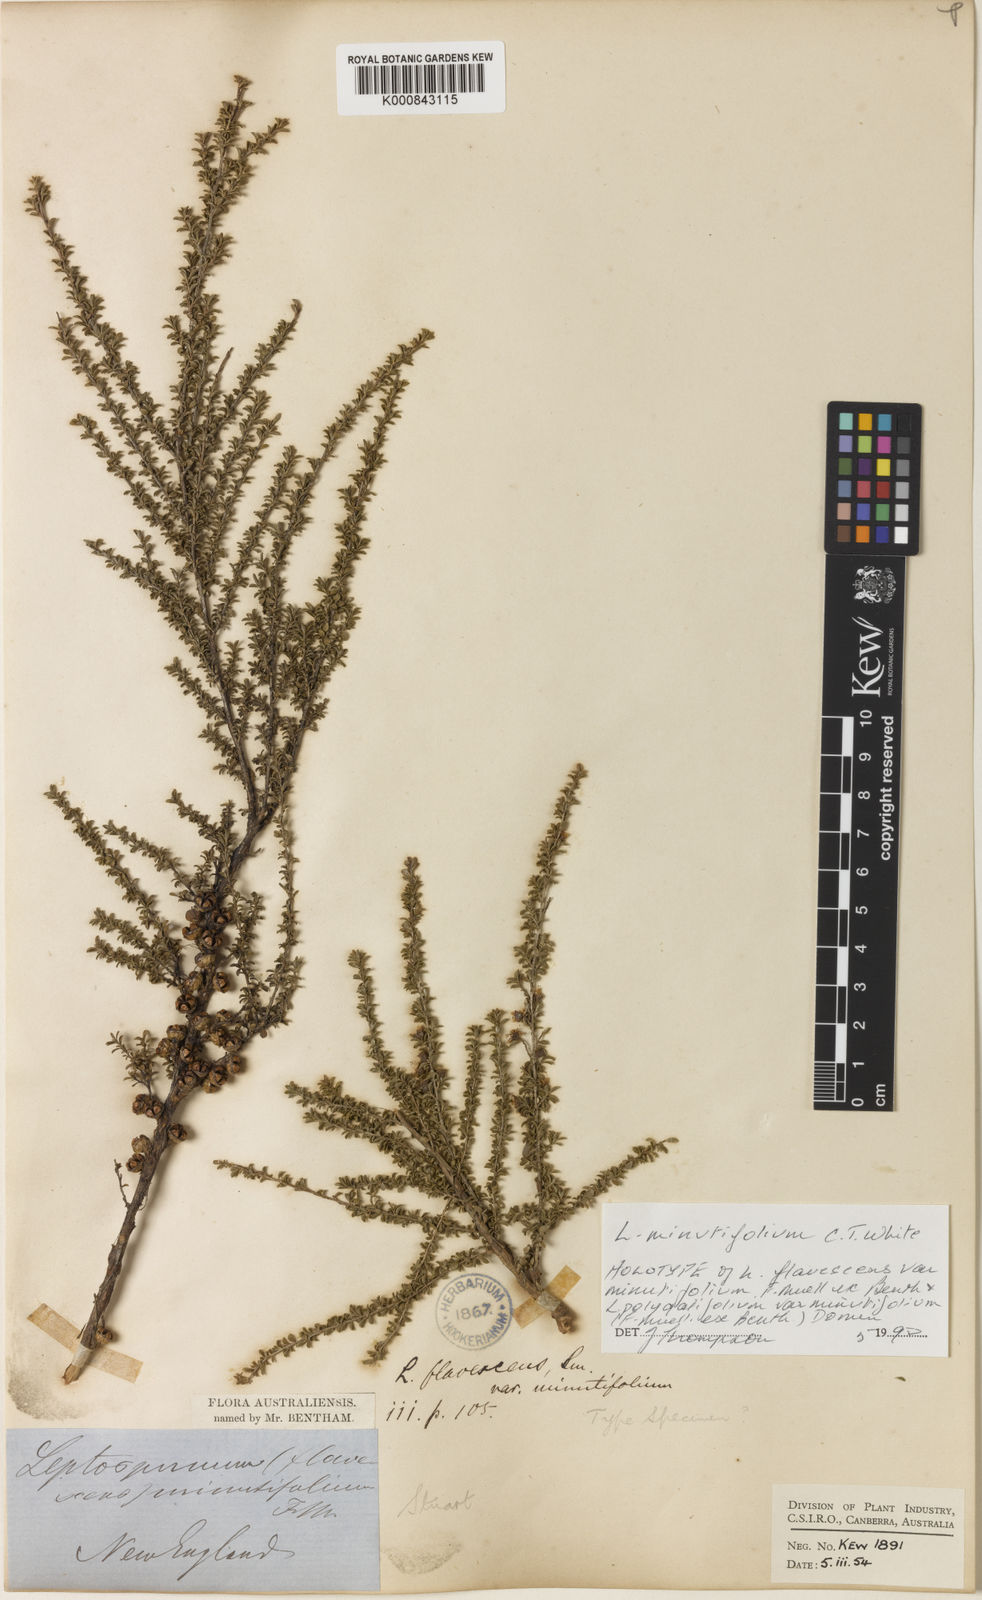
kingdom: Plantae
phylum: Tracheophyta
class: Magnoliopsida
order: Myrtales
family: Myrtaceae
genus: Leptospermum
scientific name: Leptospermum minutifolium
